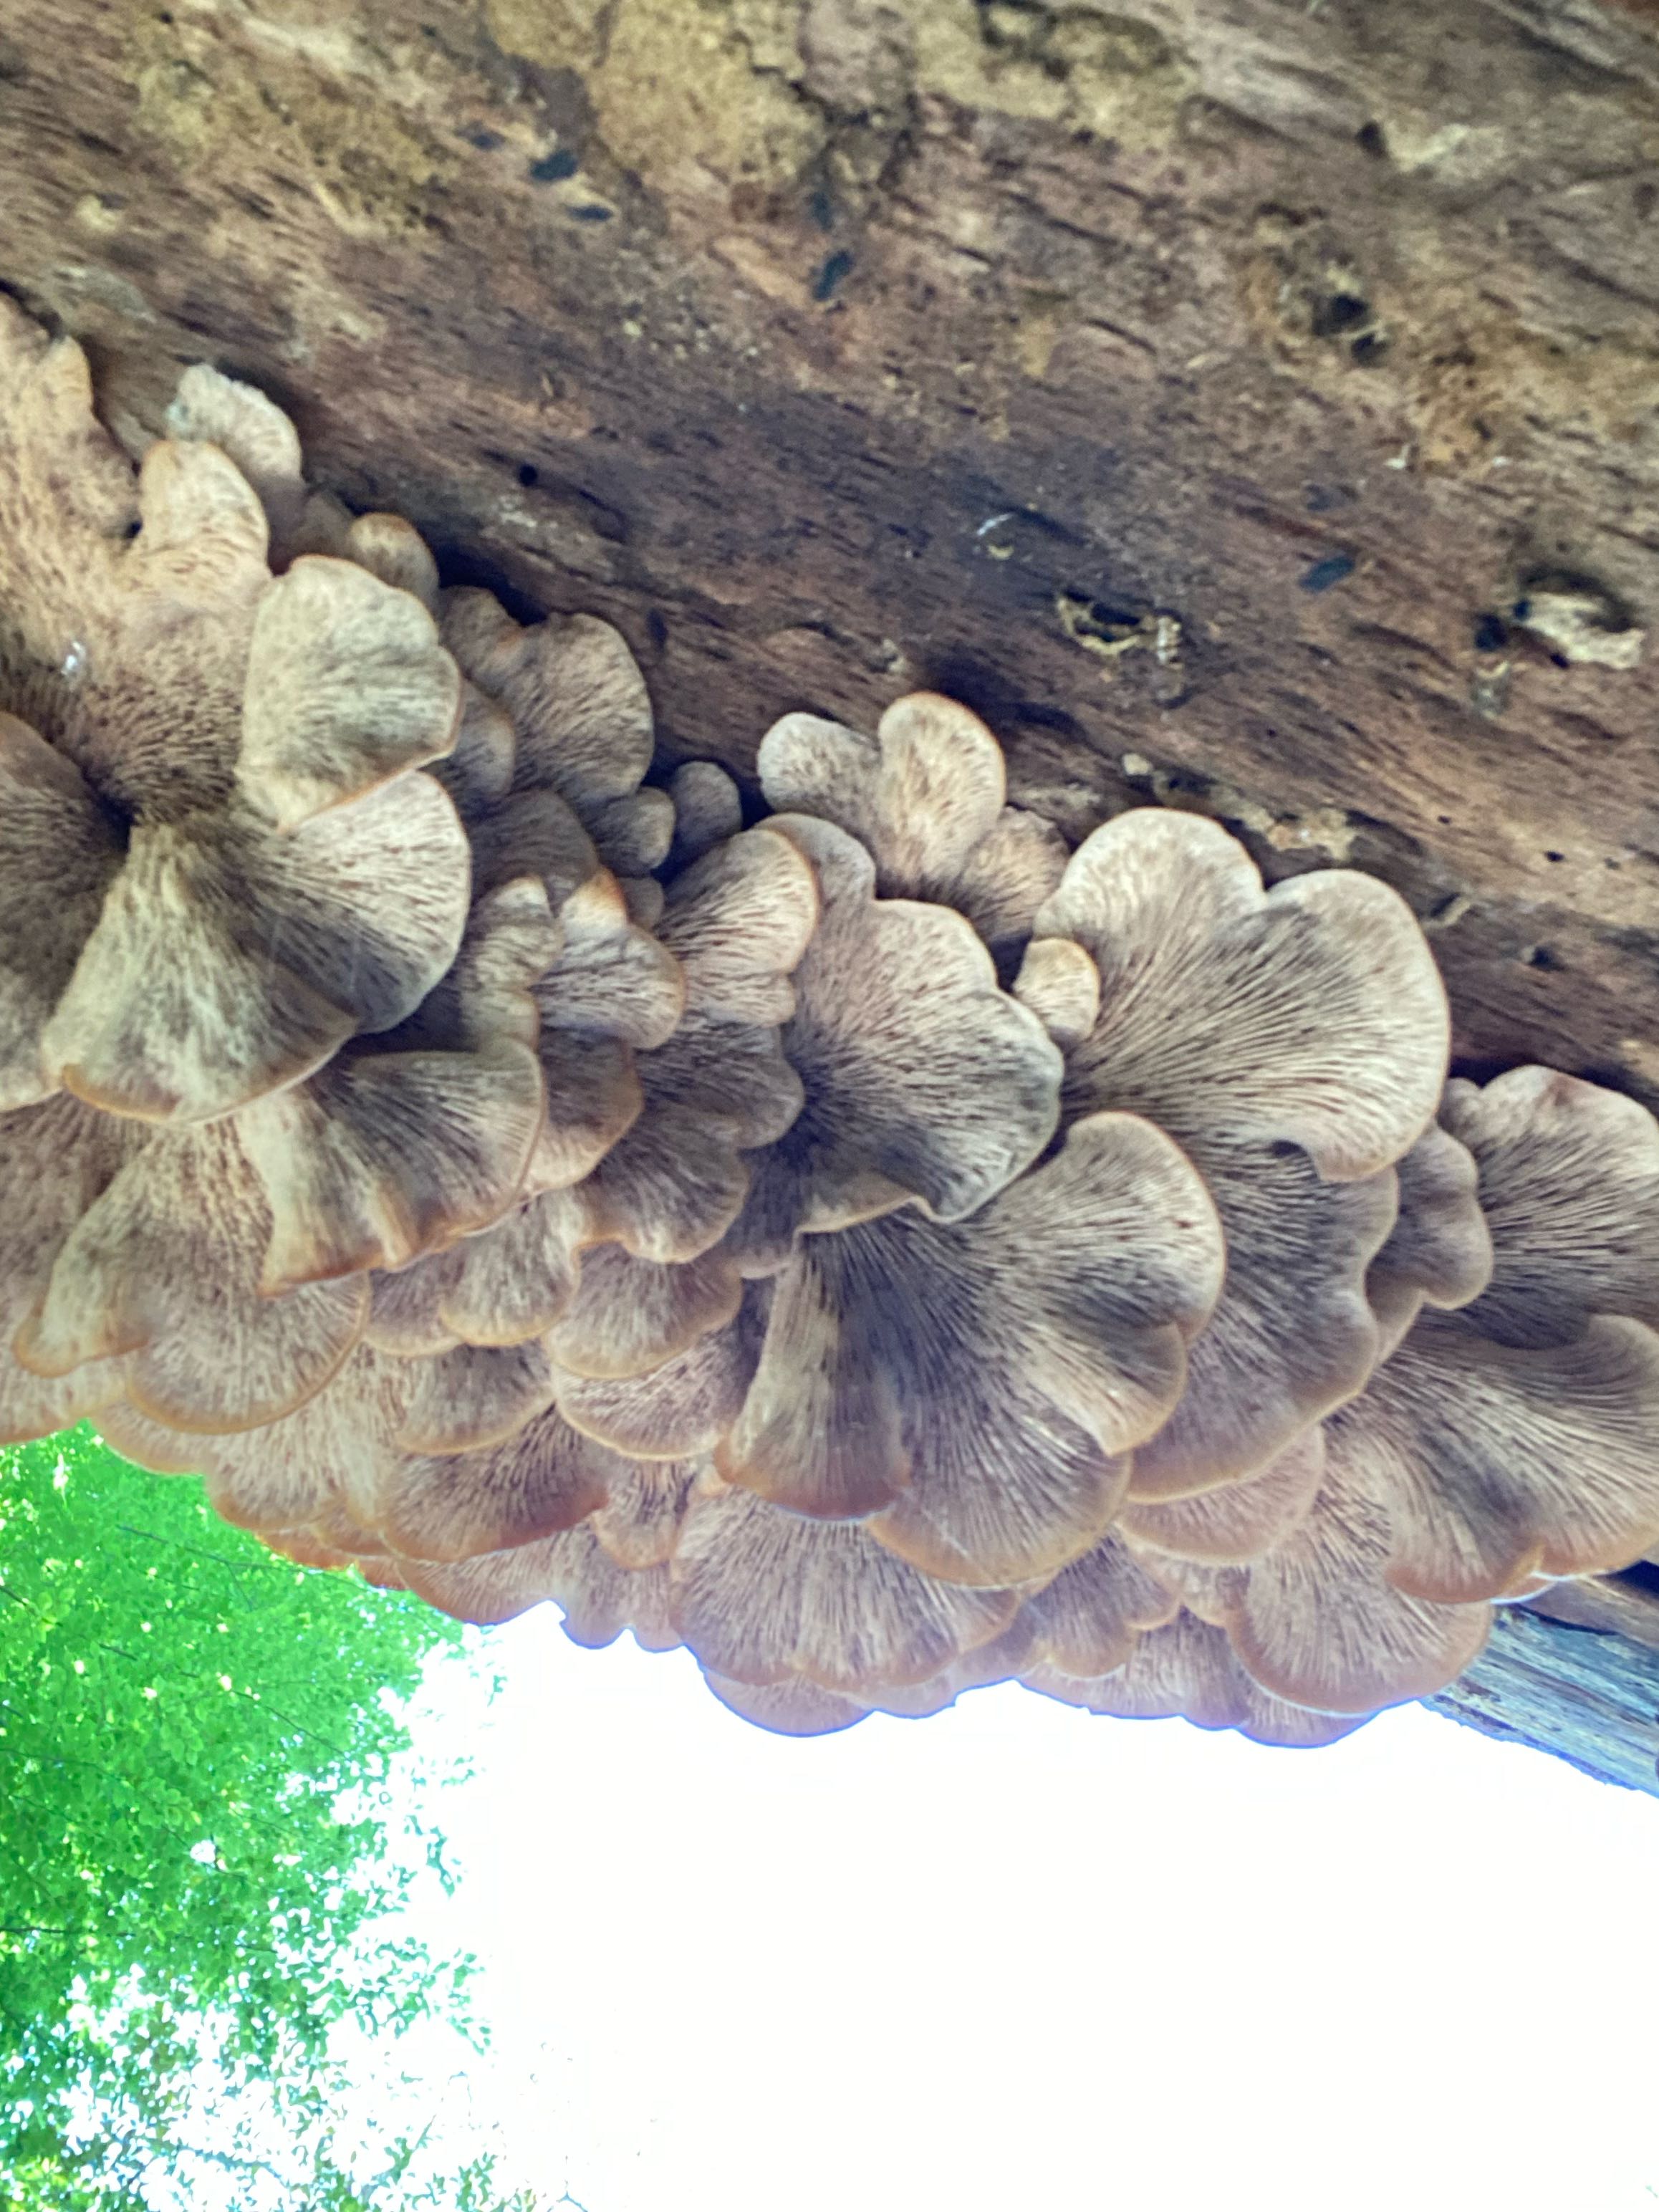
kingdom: Fungi
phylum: Basidiomycota
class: Agaricomycetes
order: Russulales
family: Auriscalpiaceae
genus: Lentinellus
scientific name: Lentinellus ursinus
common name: børstehåret savbladhat
